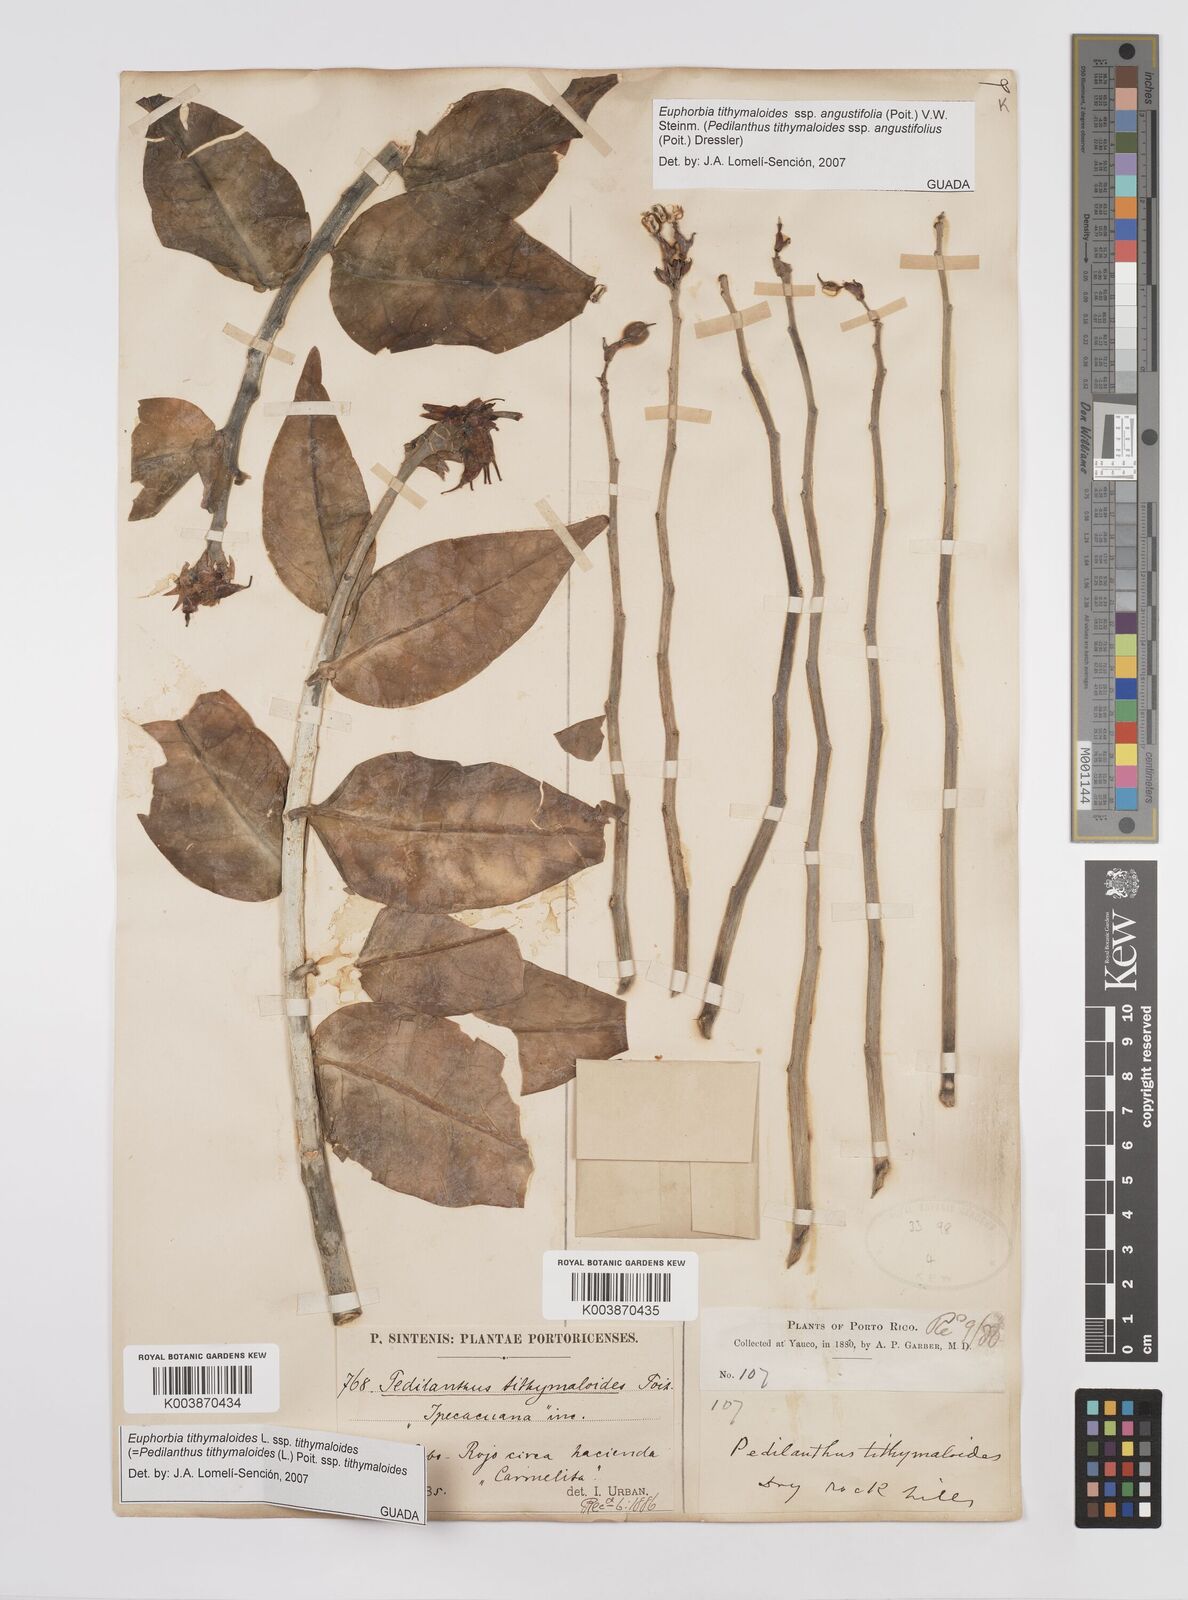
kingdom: Plantae
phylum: Tracheophyta
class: Magnoliopsida
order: Malpighiales
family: Euphorbiaceae
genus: Euphorbia
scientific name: Euphorbia tithymaloides
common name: Slipperplant
